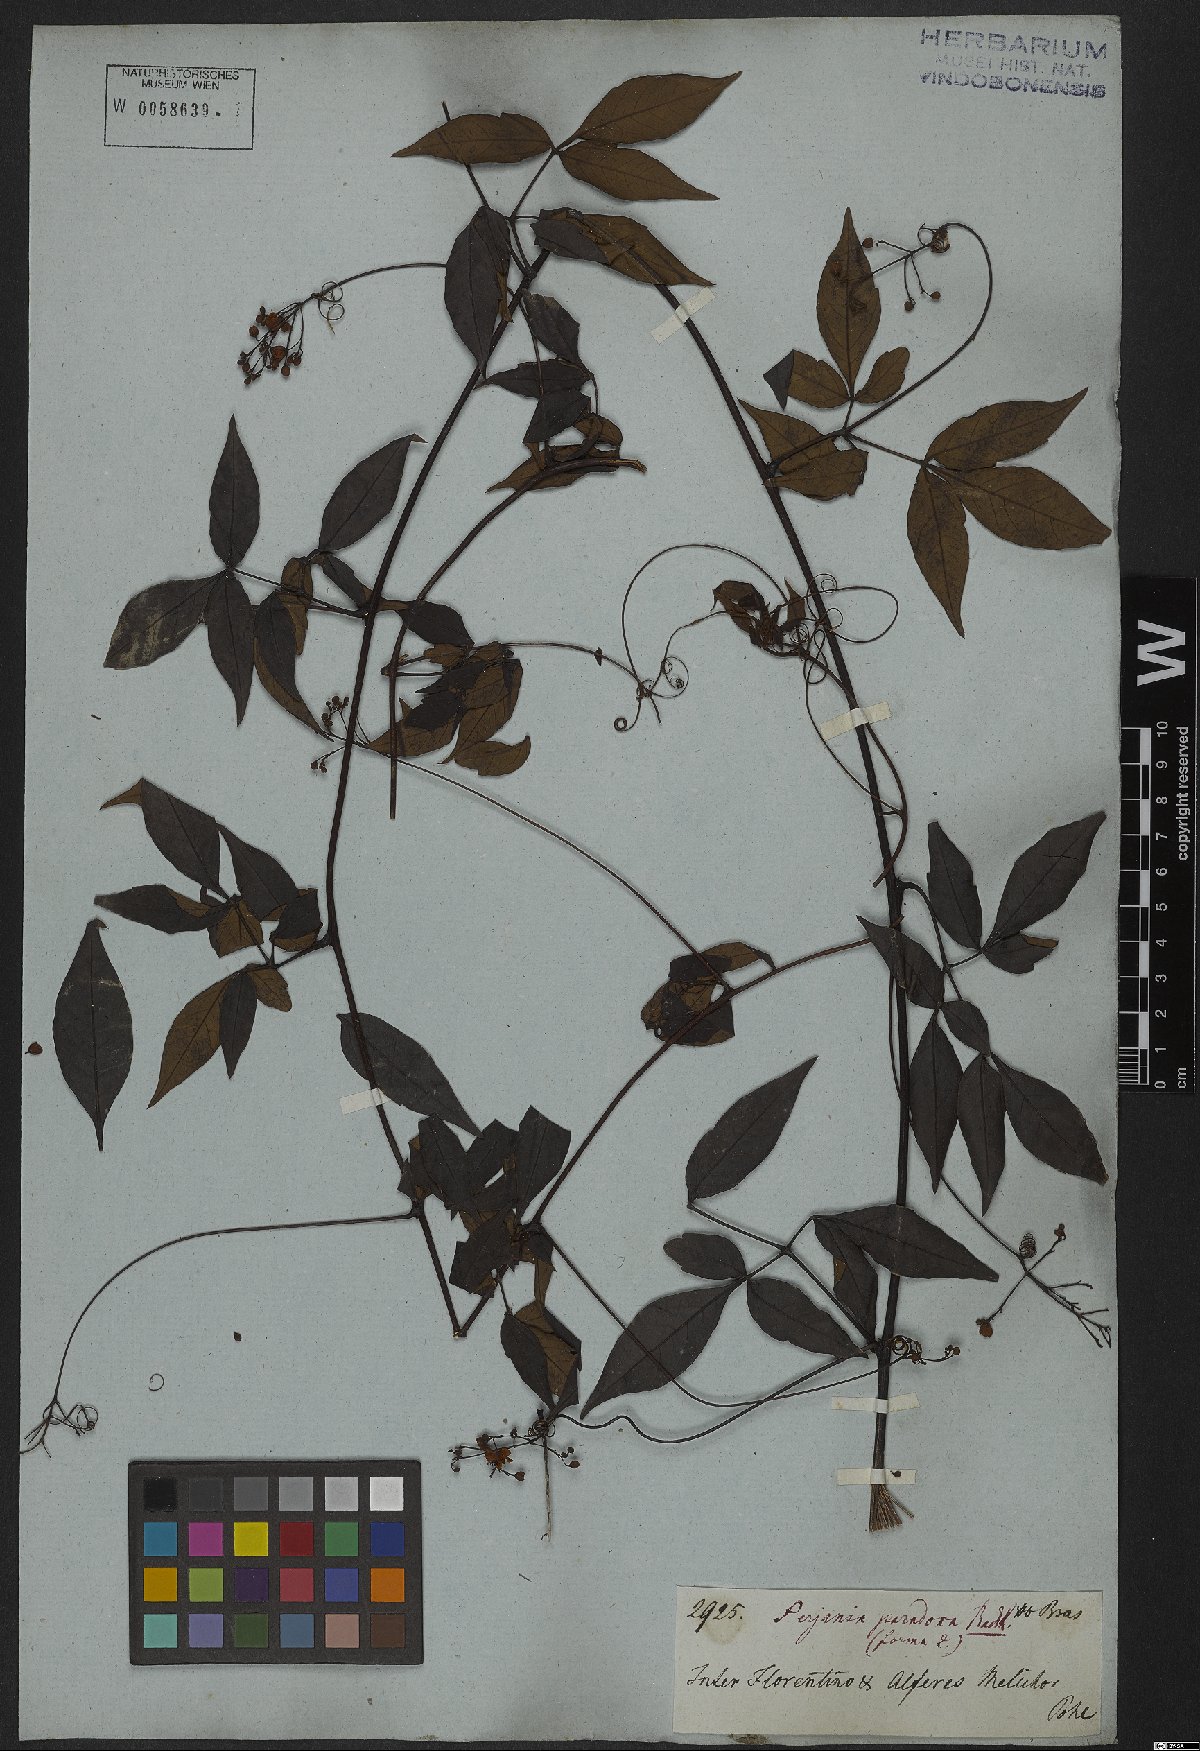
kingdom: Plantae
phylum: Tracheophyta
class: Magnoliopsida
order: Sapindales
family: Sapindaceae
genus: Serjania
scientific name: Serjania paradoxa
